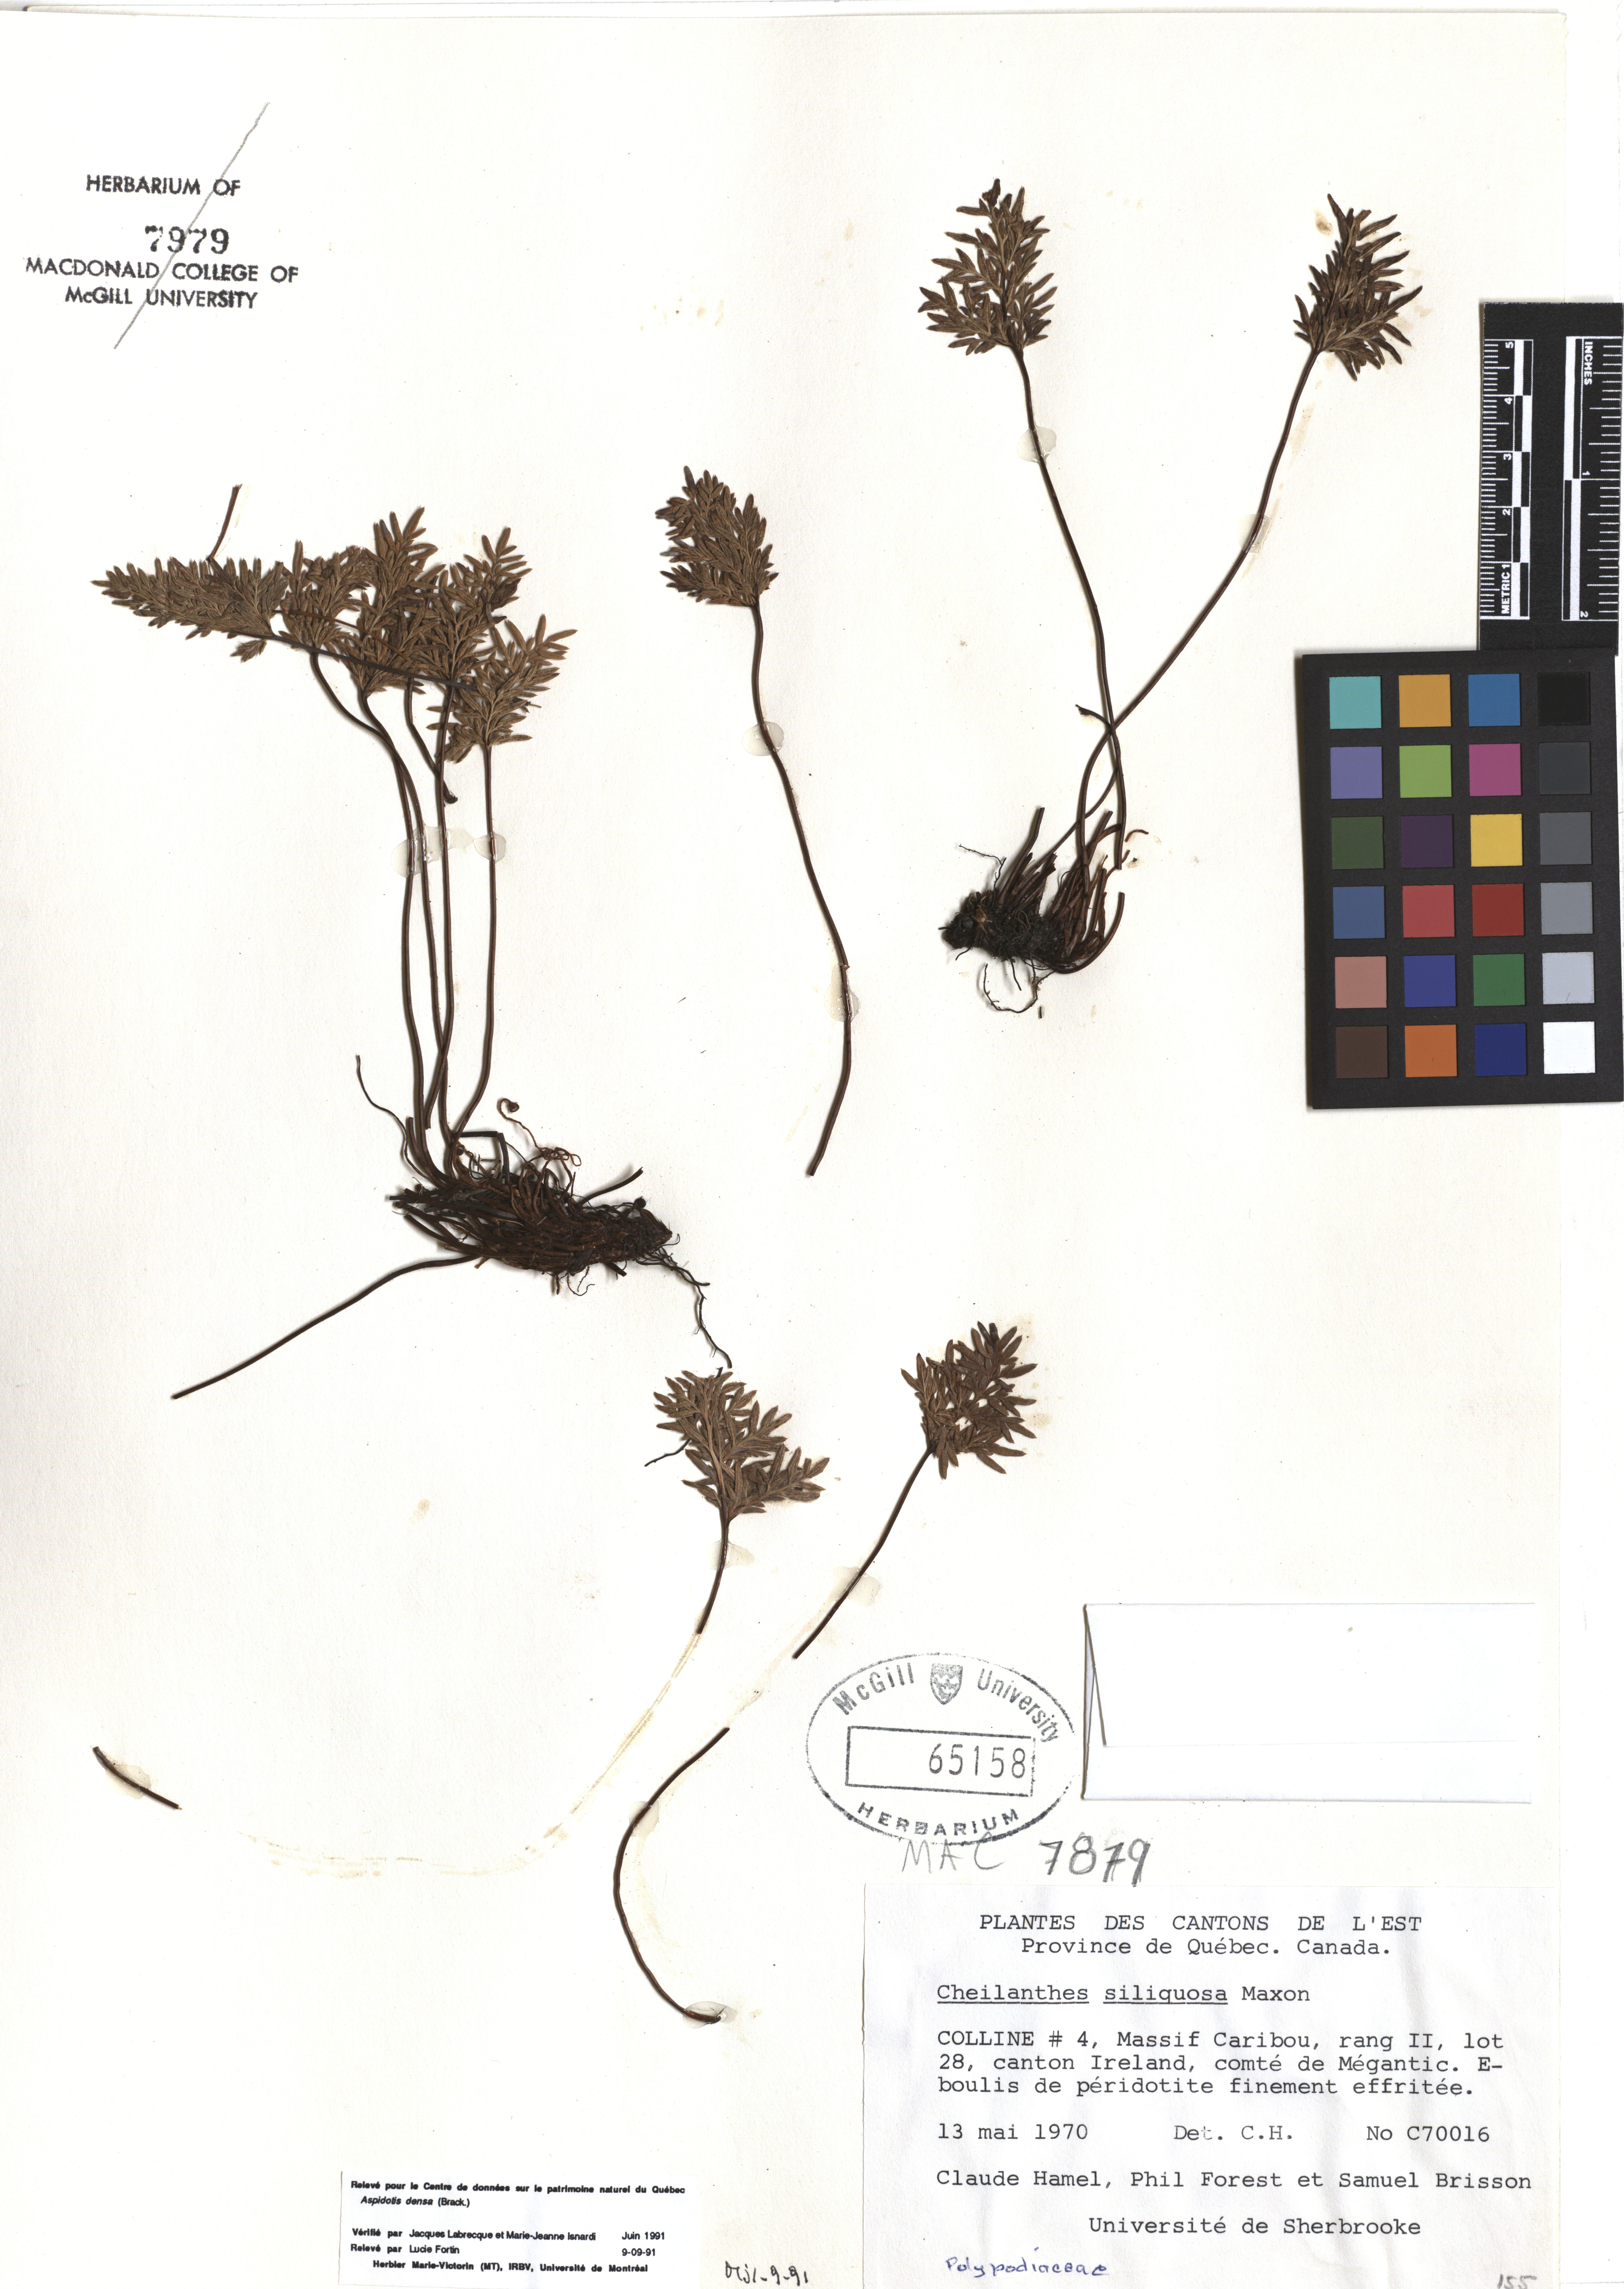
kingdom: Plantae
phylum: Tracheophyta
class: Polypodiopsida
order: Polypodiales
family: Pteridaceae
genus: Aspidotis
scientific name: Aspidotis densa
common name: Indian's dream
